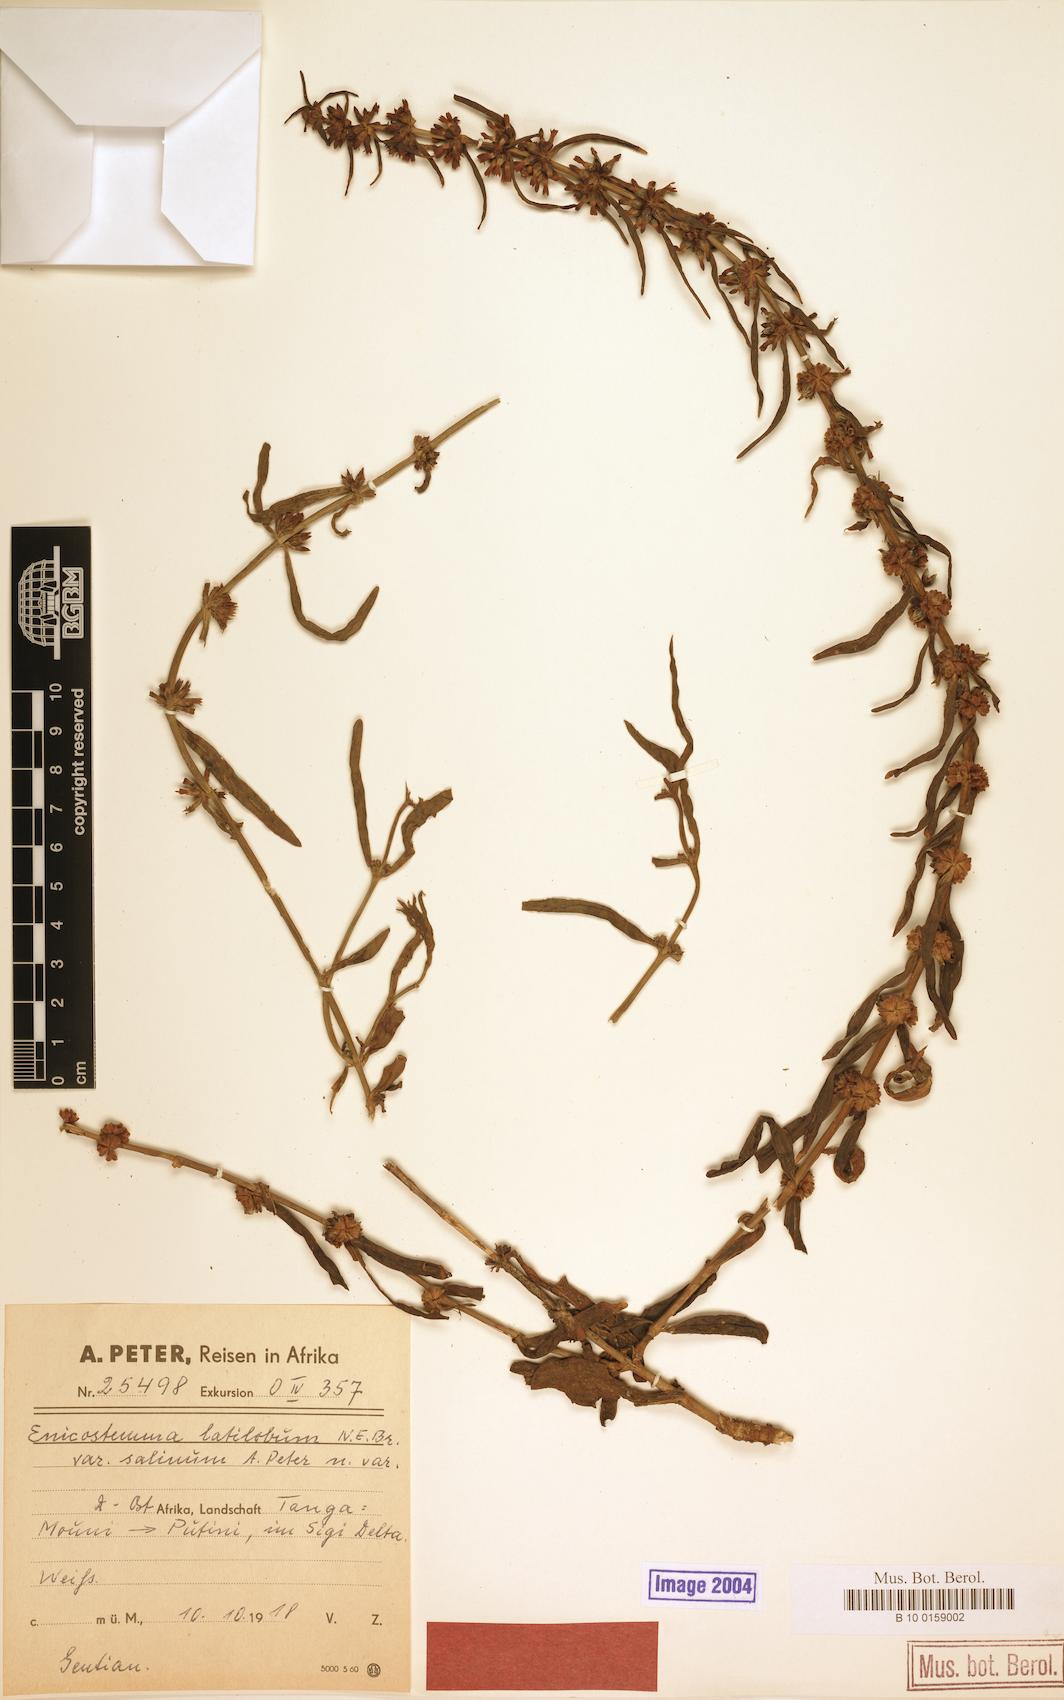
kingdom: Plantae
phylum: Tracheophyta
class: Magnoliopsida
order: Gentianales
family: Gentianaceae
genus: Enicostema
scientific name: Enicostema axillare
